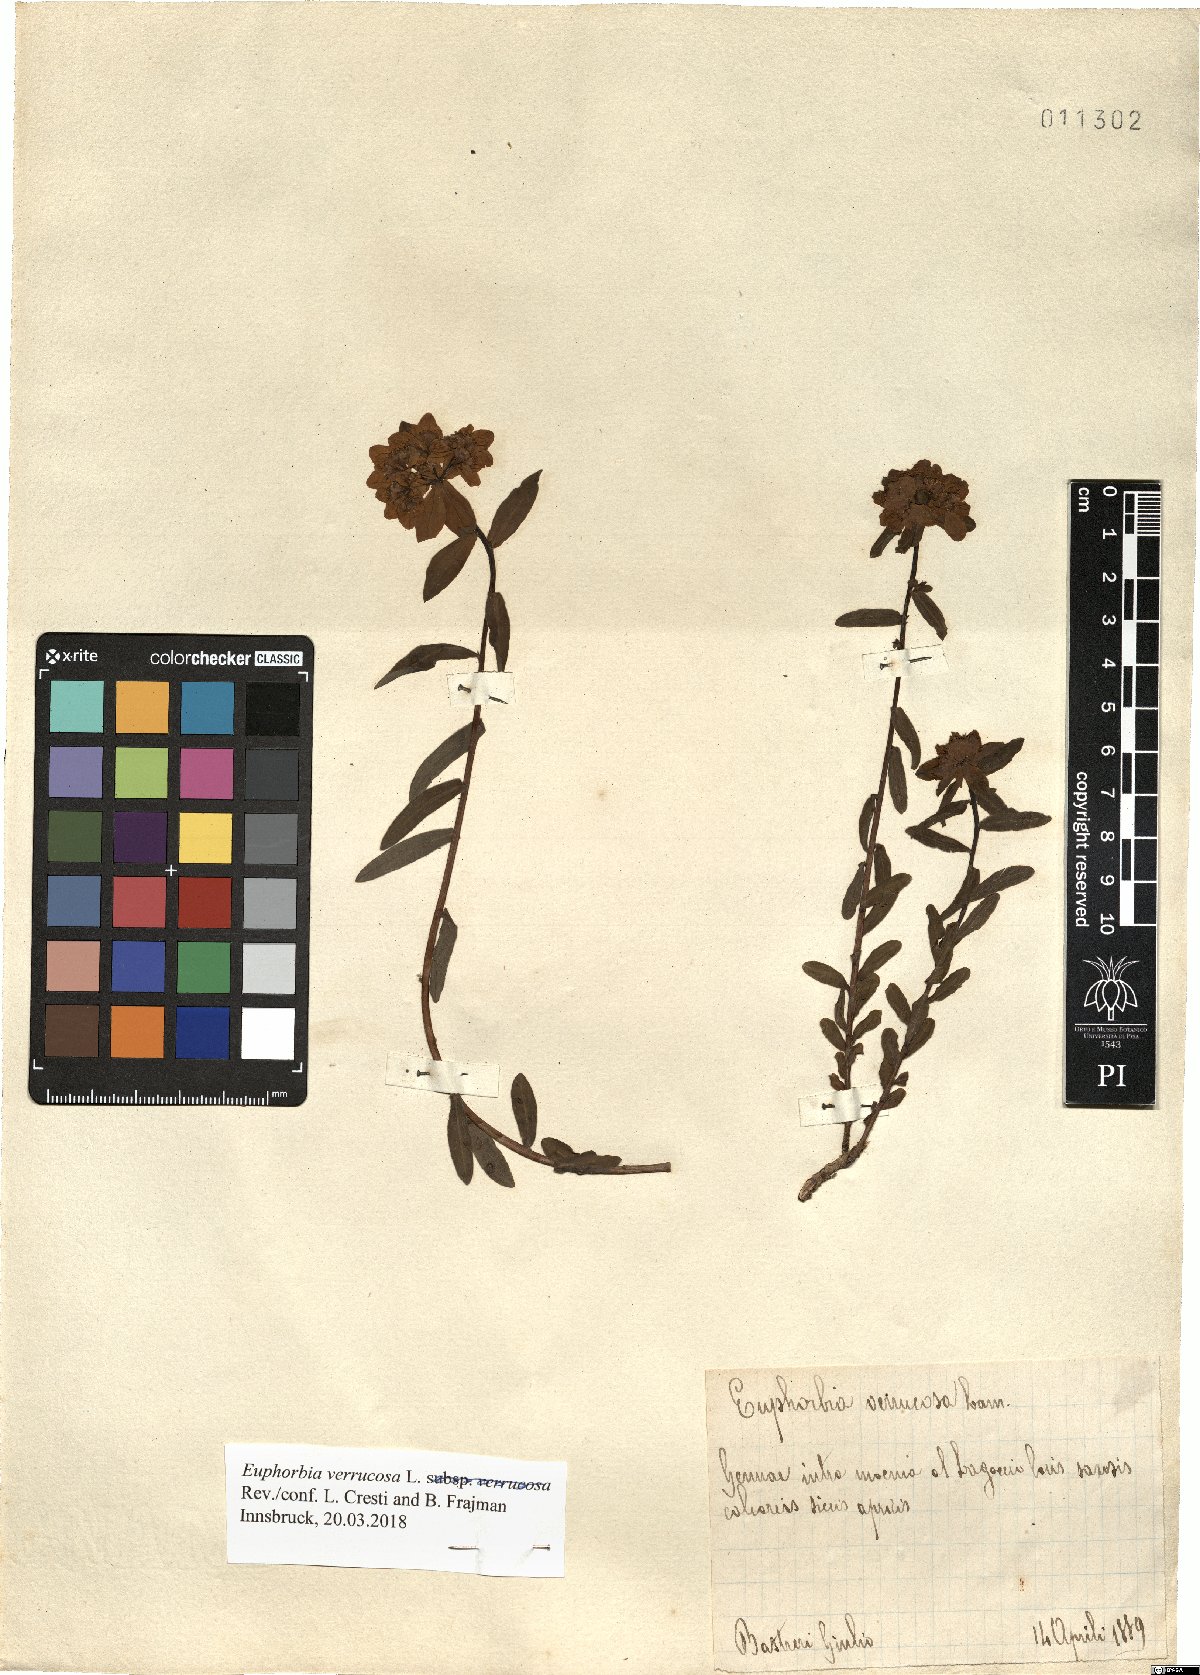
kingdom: Plantae
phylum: Tracheophyta
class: Magnoliopsida
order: Malpighiales
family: Euphorbiaceae
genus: Euphorbia
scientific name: Euphorbia verrucosa
